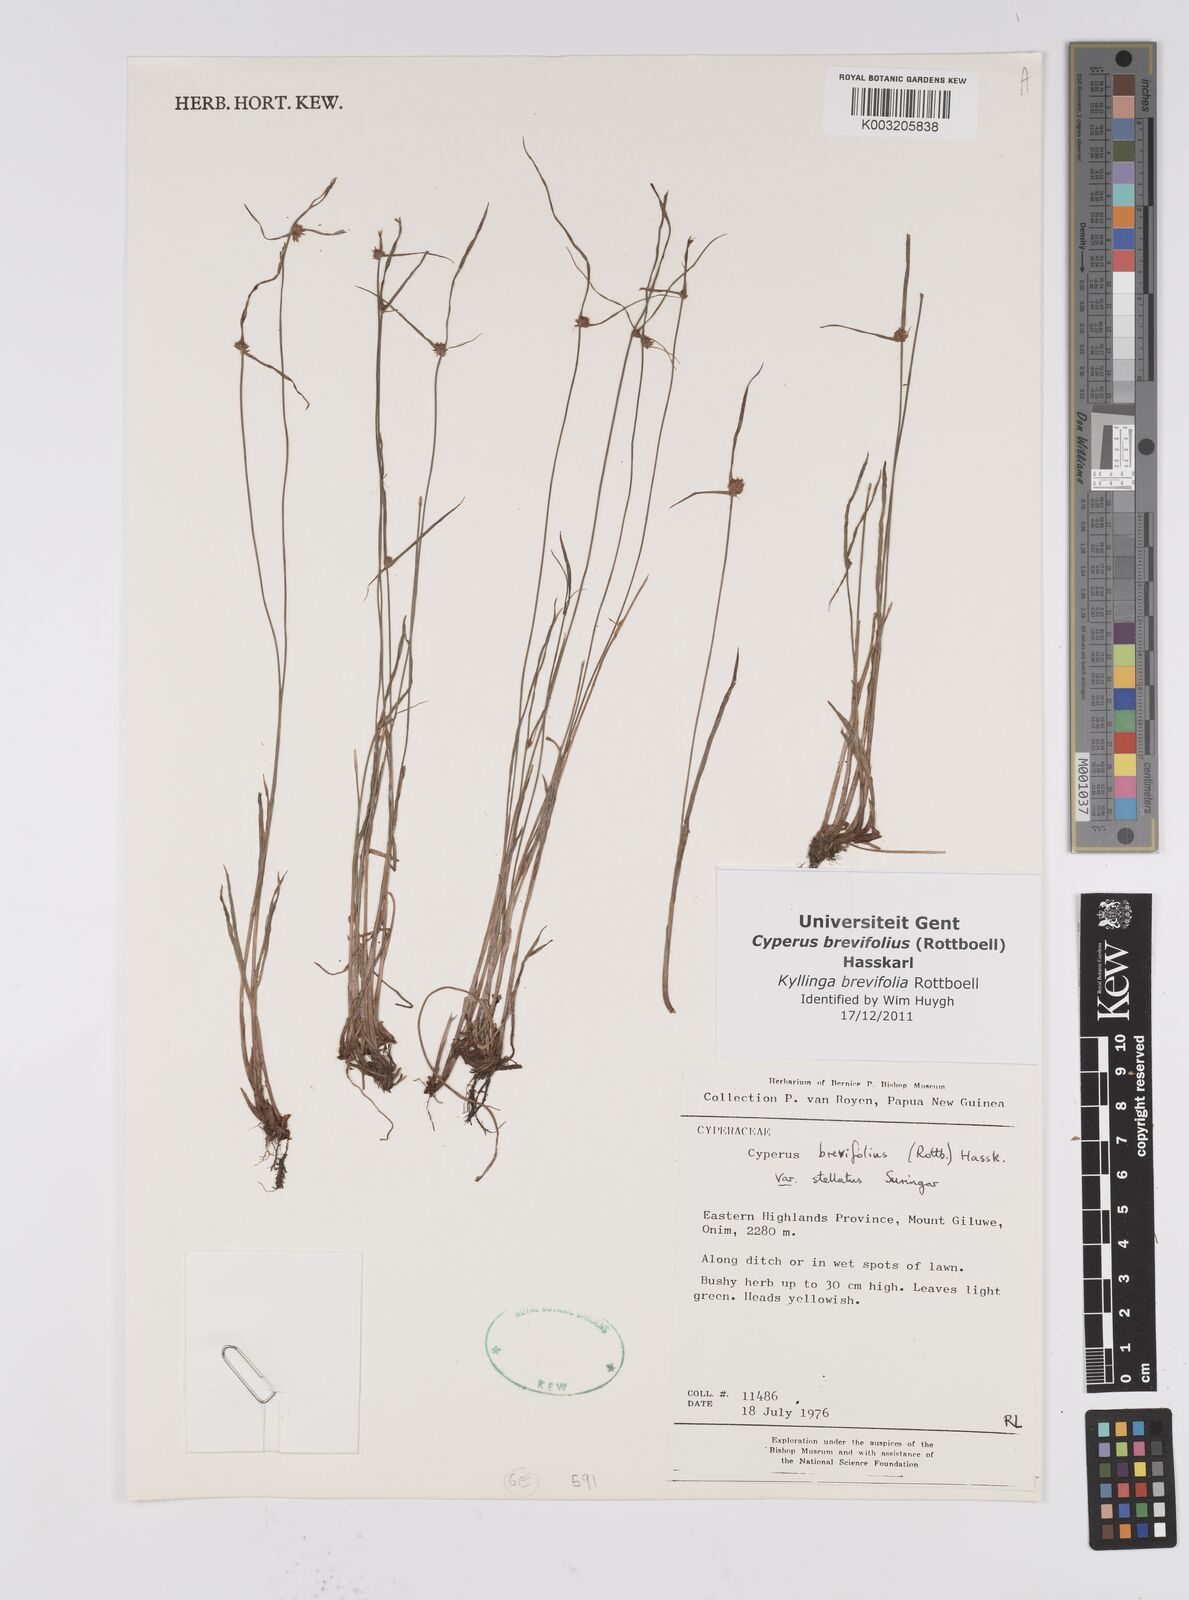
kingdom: Plantae
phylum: Tracheophyta
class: Liliopsida
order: Poales
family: Cyperaceae
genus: Cyperus
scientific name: Cyperus brevifolius
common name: Globe kyllinga
